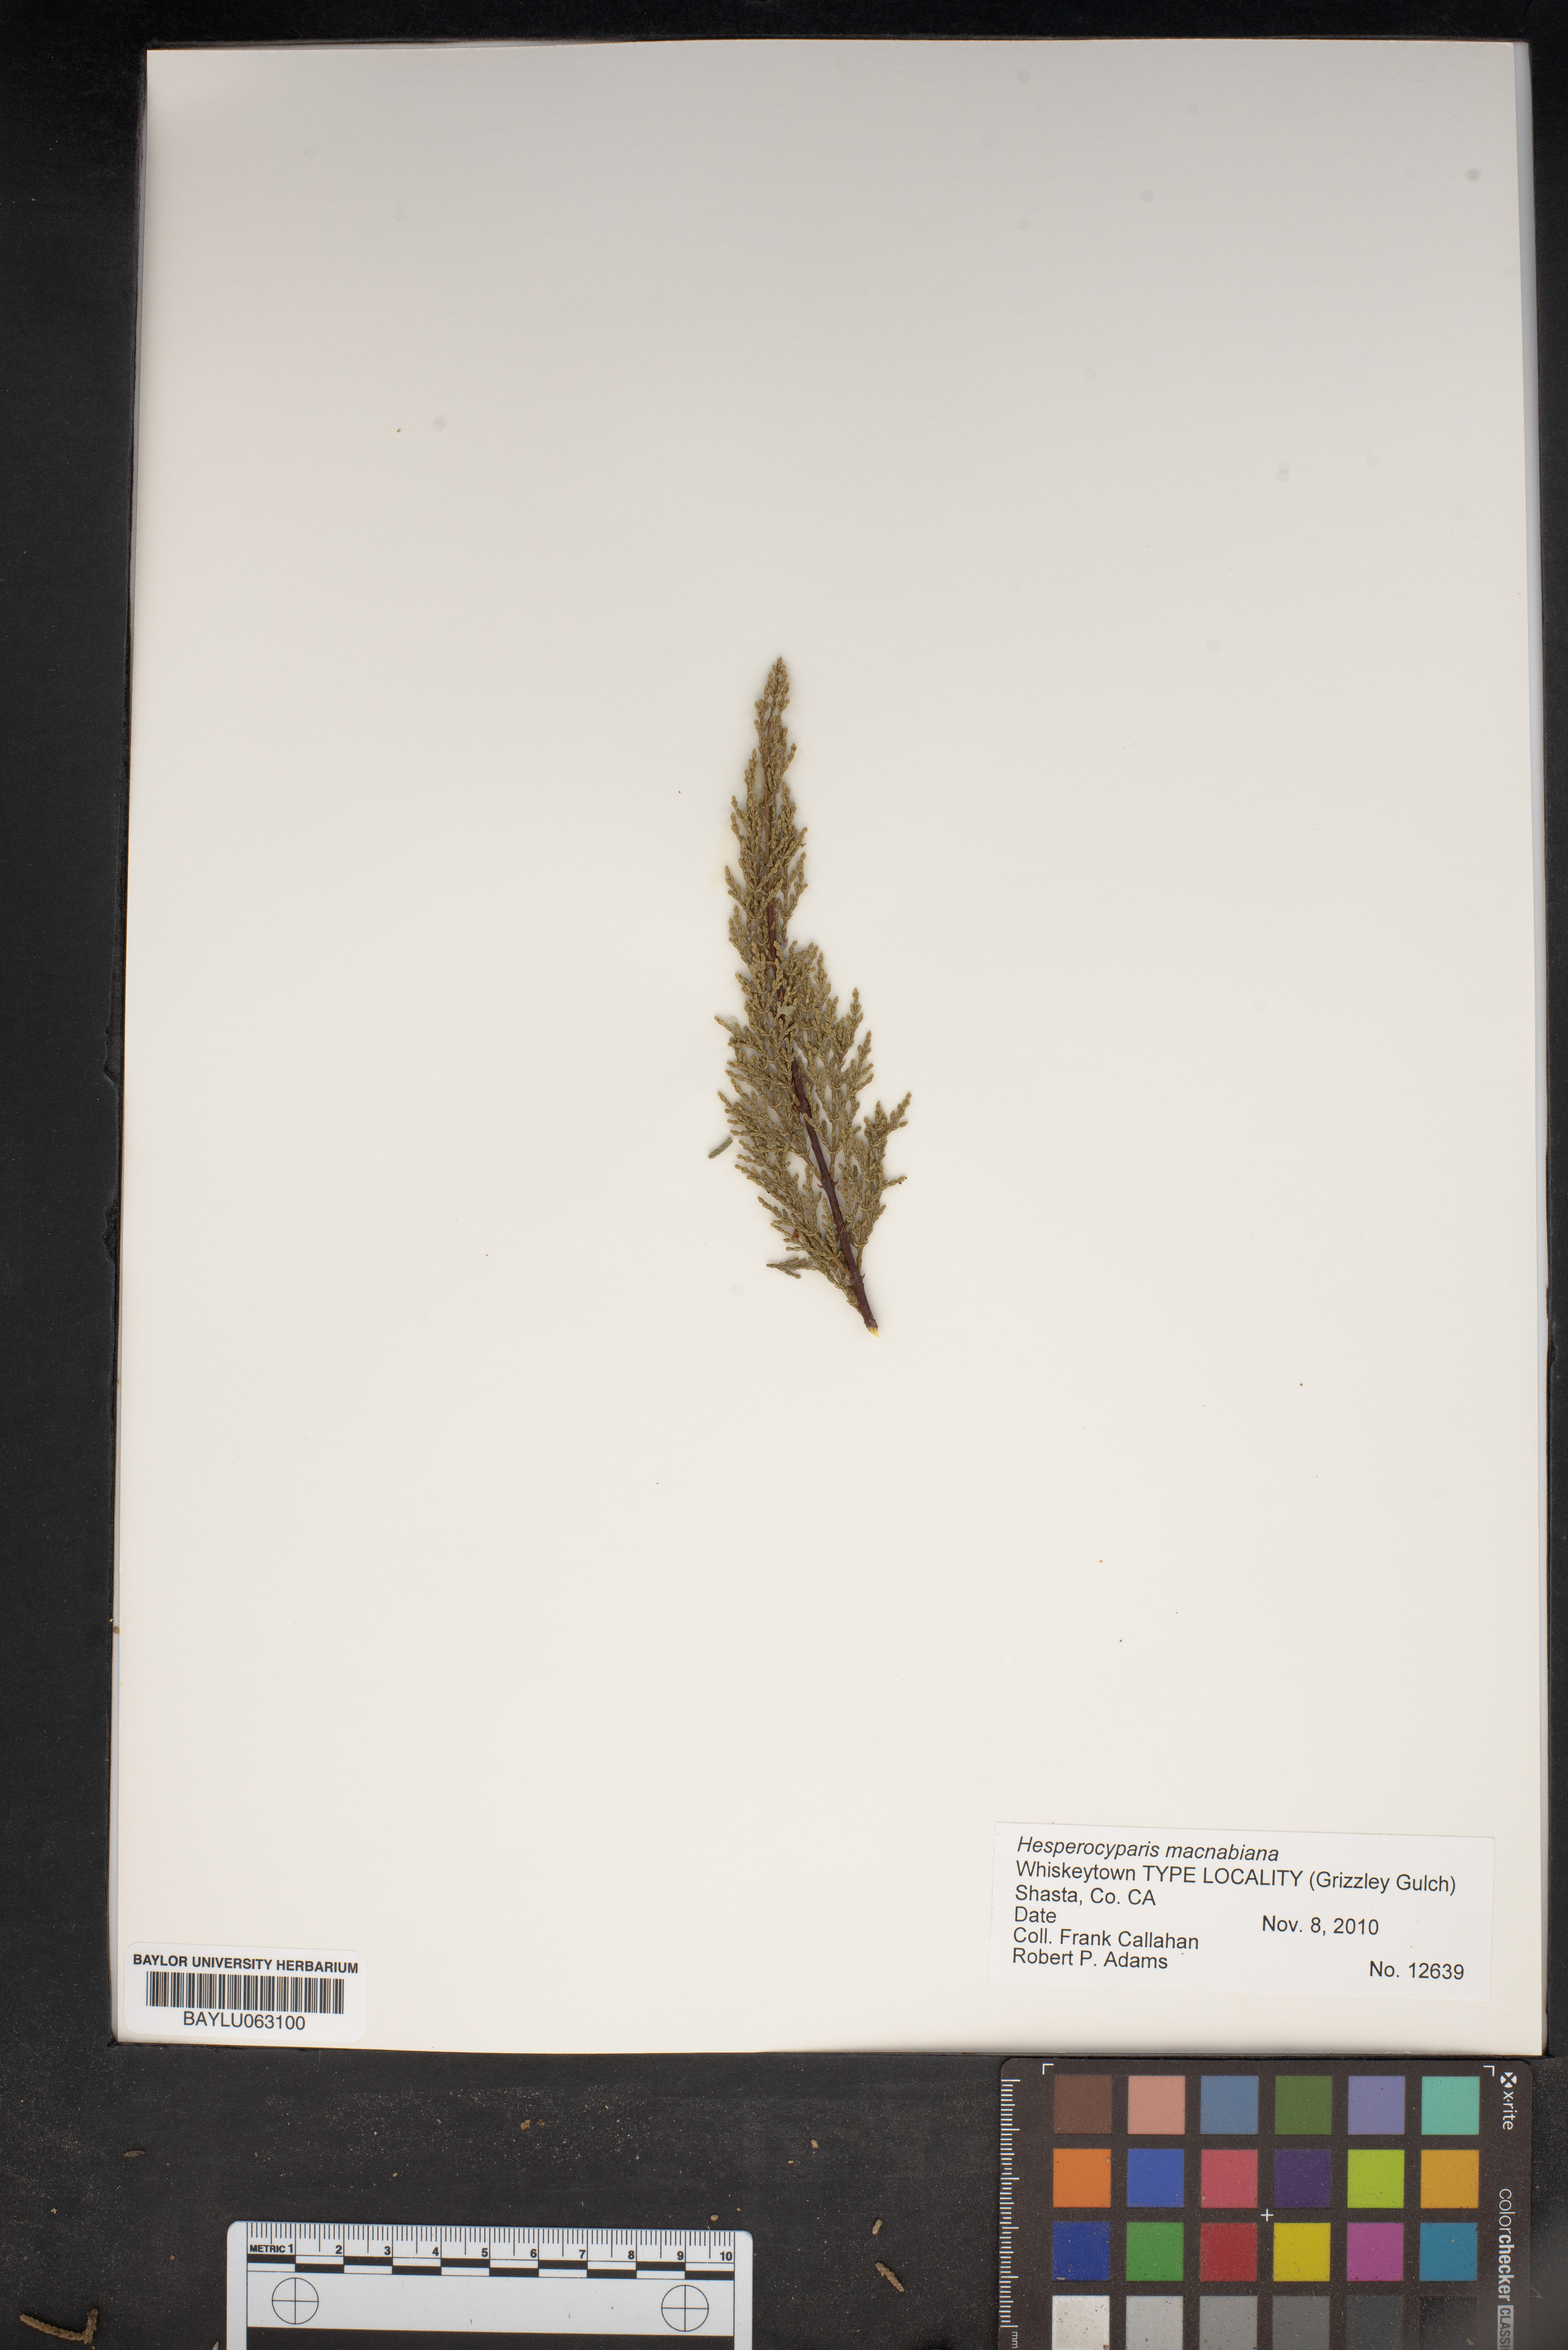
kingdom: Plantae
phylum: Tracheophyta
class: Pinopsida
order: Pinales
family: Cupressaceae
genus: Cupressus
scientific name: Cupressus macnabiana bis
